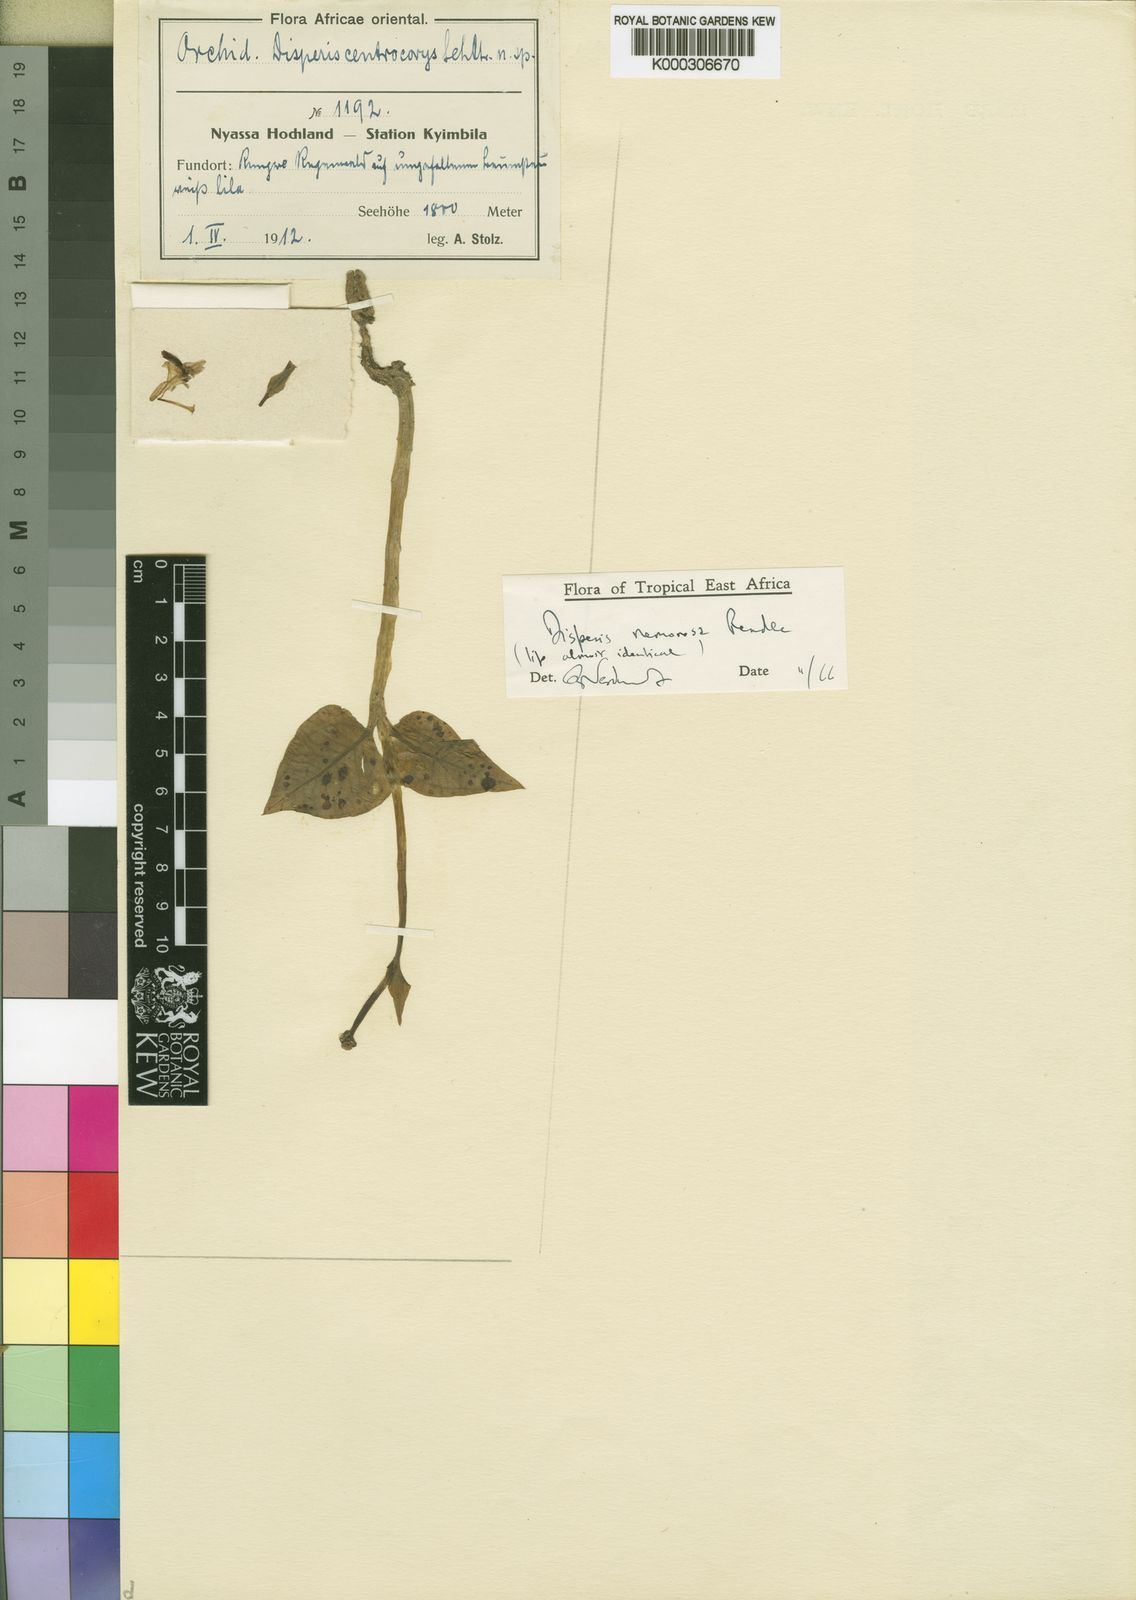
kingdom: Plantae
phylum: Tracheophyta
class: Liliopsida
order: Asparagales
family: Orchidaceae
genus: Disperis
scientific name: Disperis nemorosa
